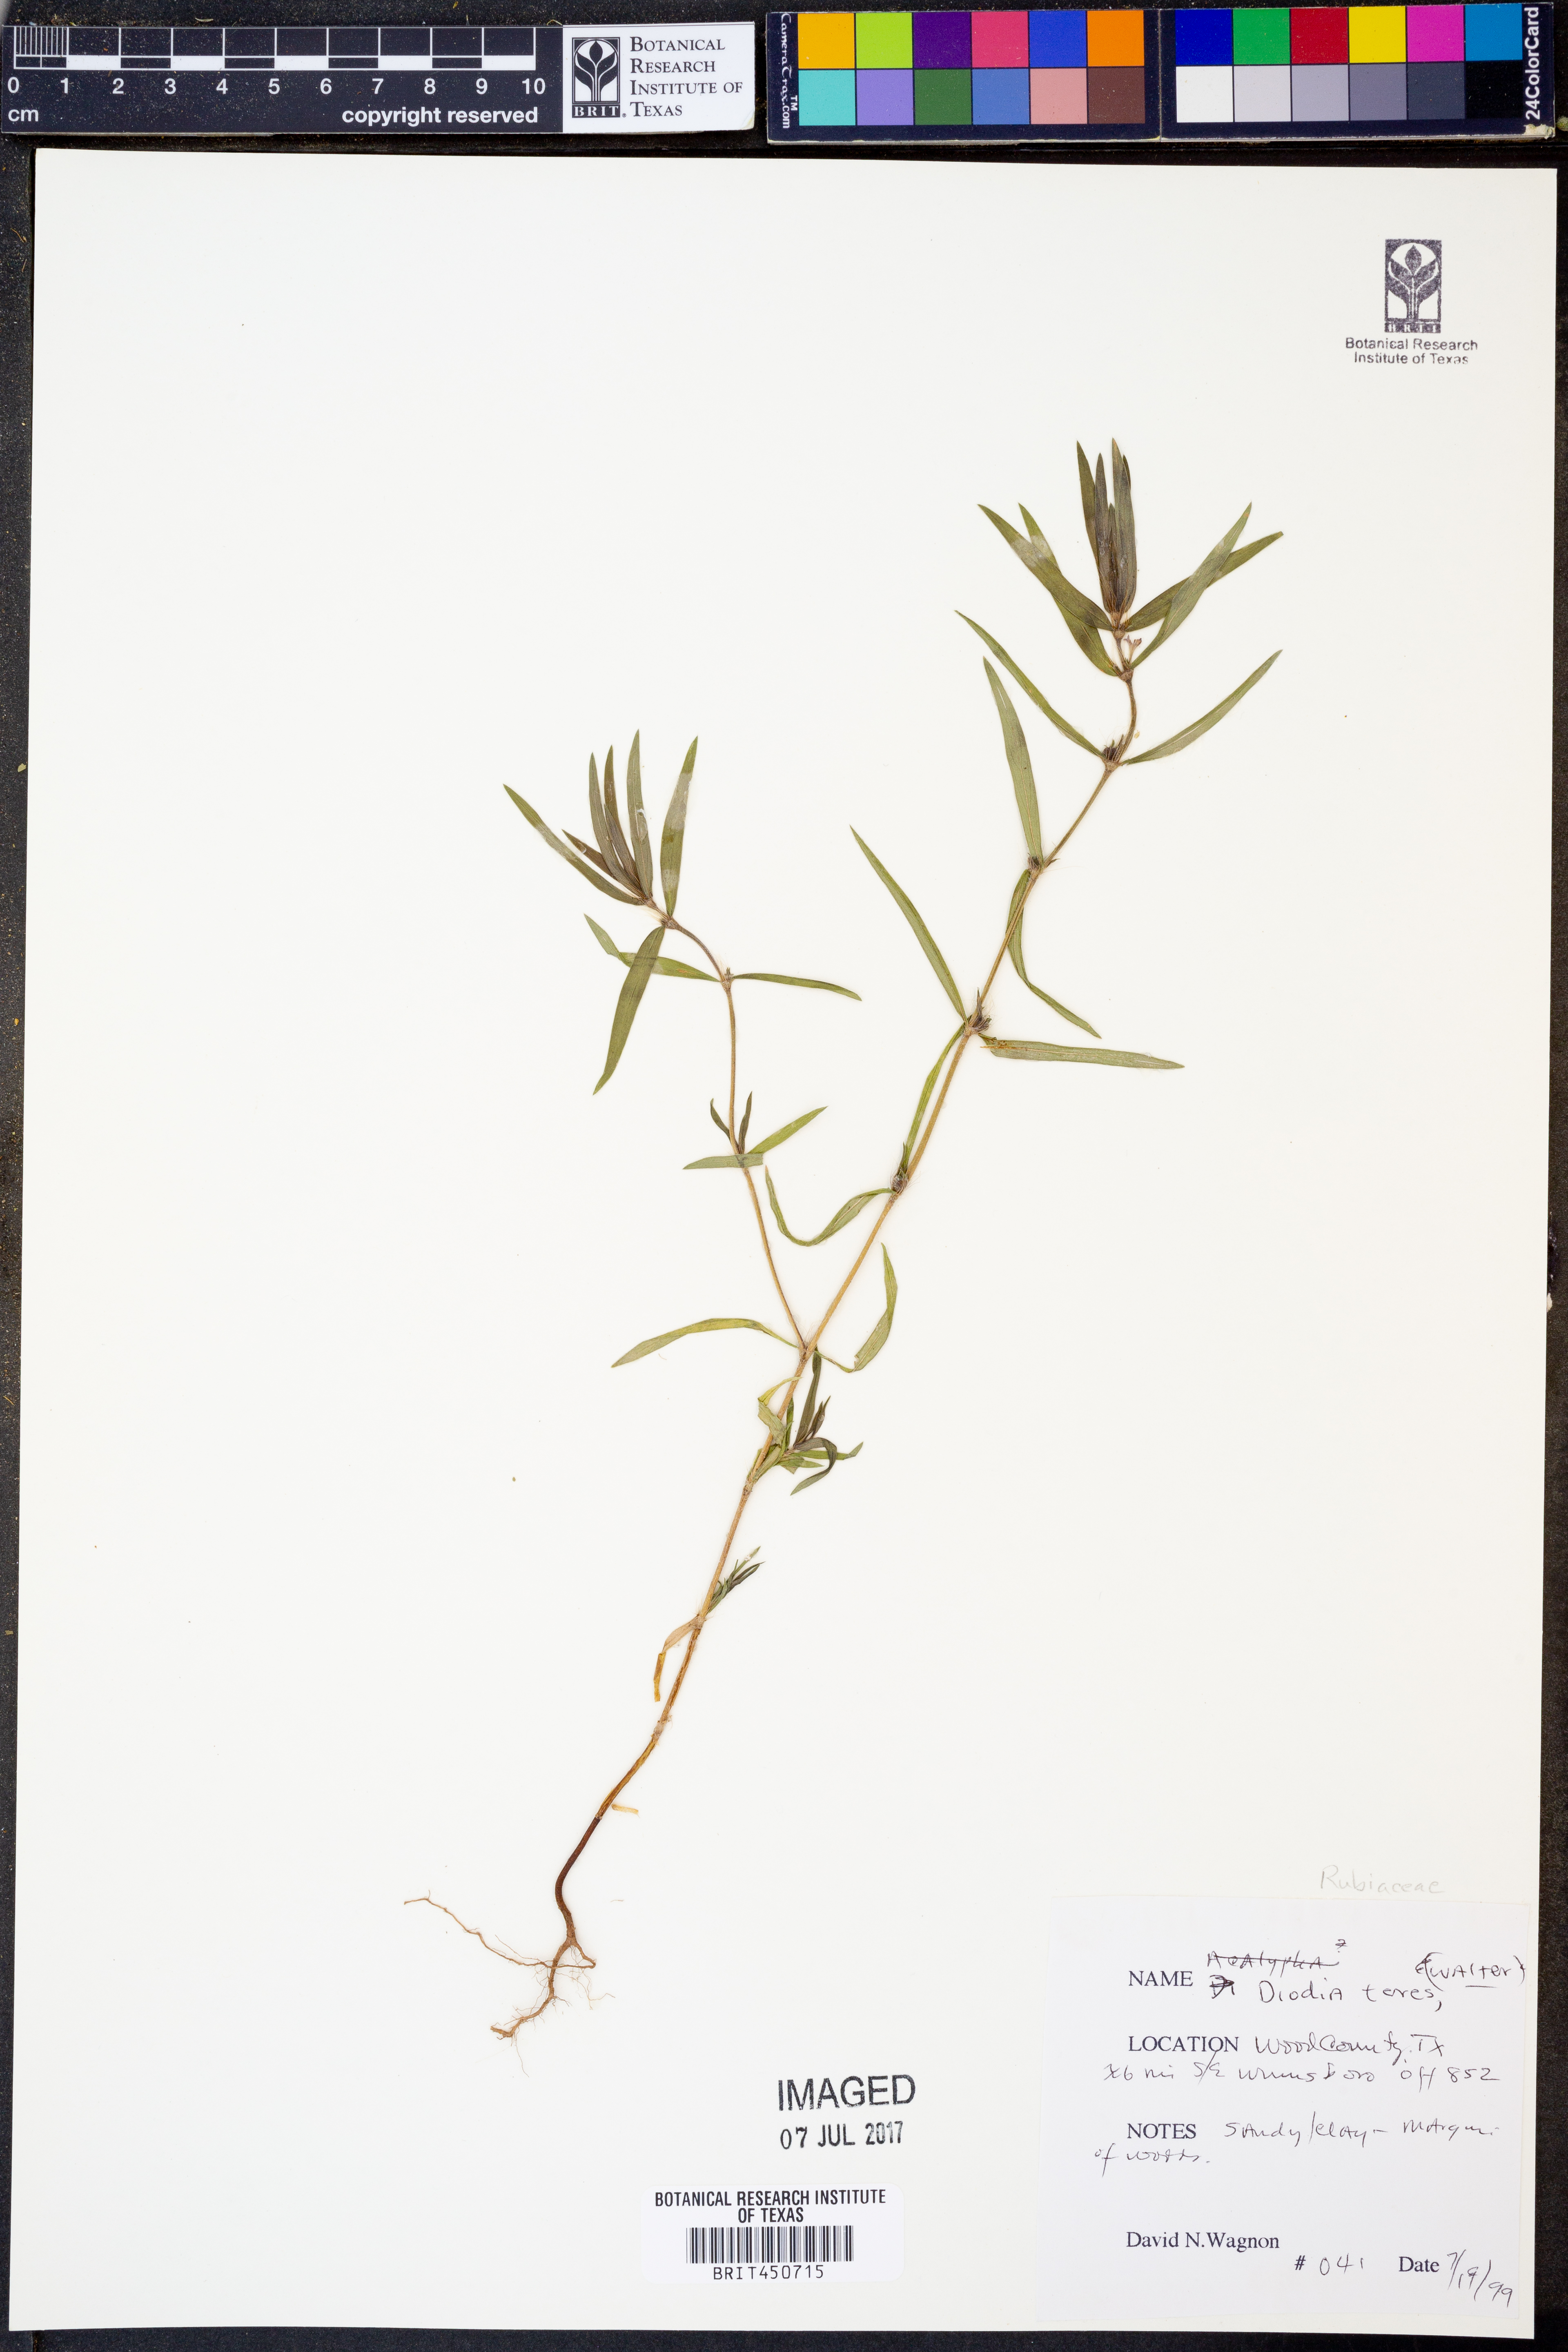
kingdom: Plantae
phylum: Tracheophyta
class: Magnoliopsida
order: Gentianales
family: Rubiaceae
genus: Hexasepalum
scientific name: Hexasepalum teres
